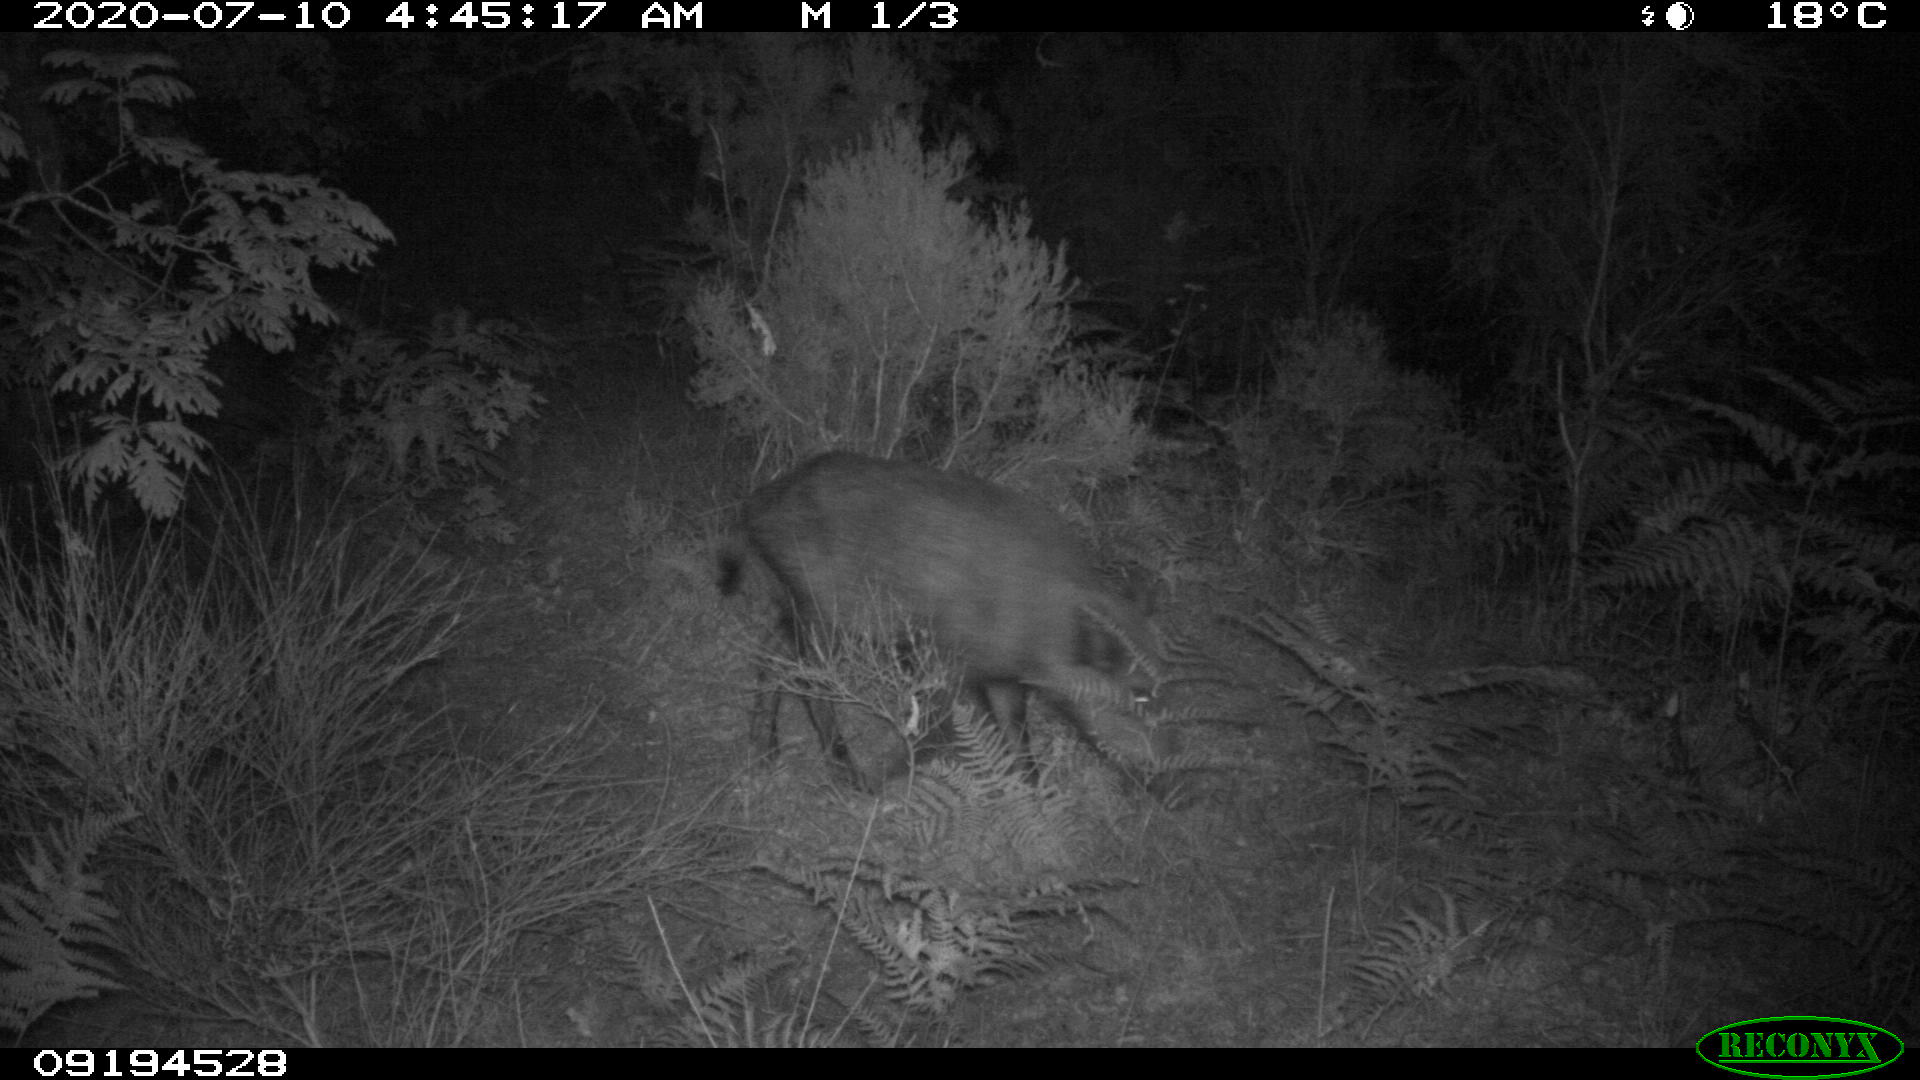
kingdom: Animalia
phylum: Chordata
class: Mammalia
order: Artiodactyla
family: Suidae
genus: Sus
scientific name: Sus scrofa
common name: Wild boar
